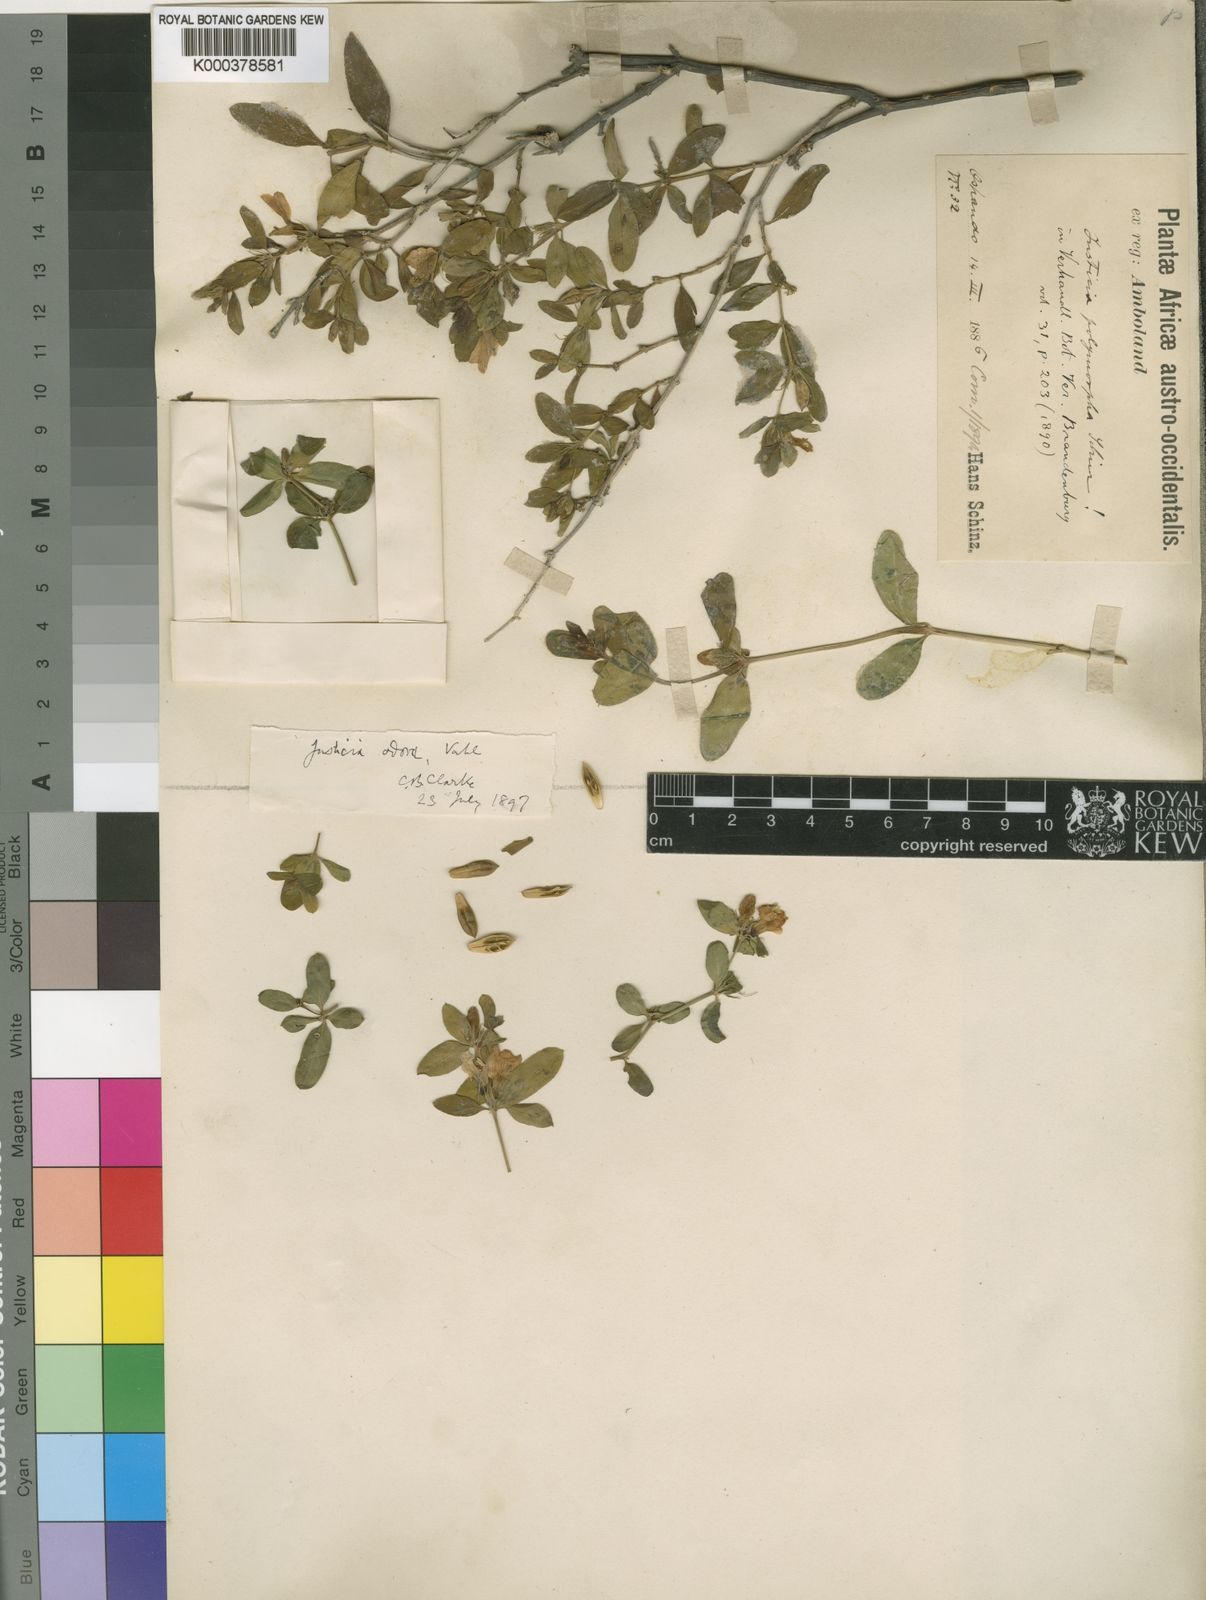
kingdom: Plantae
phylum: Tracheophyta
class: Magnoliopsida
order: Lamiales
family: Acanthaceae
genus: Justicia
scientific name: Justicia
